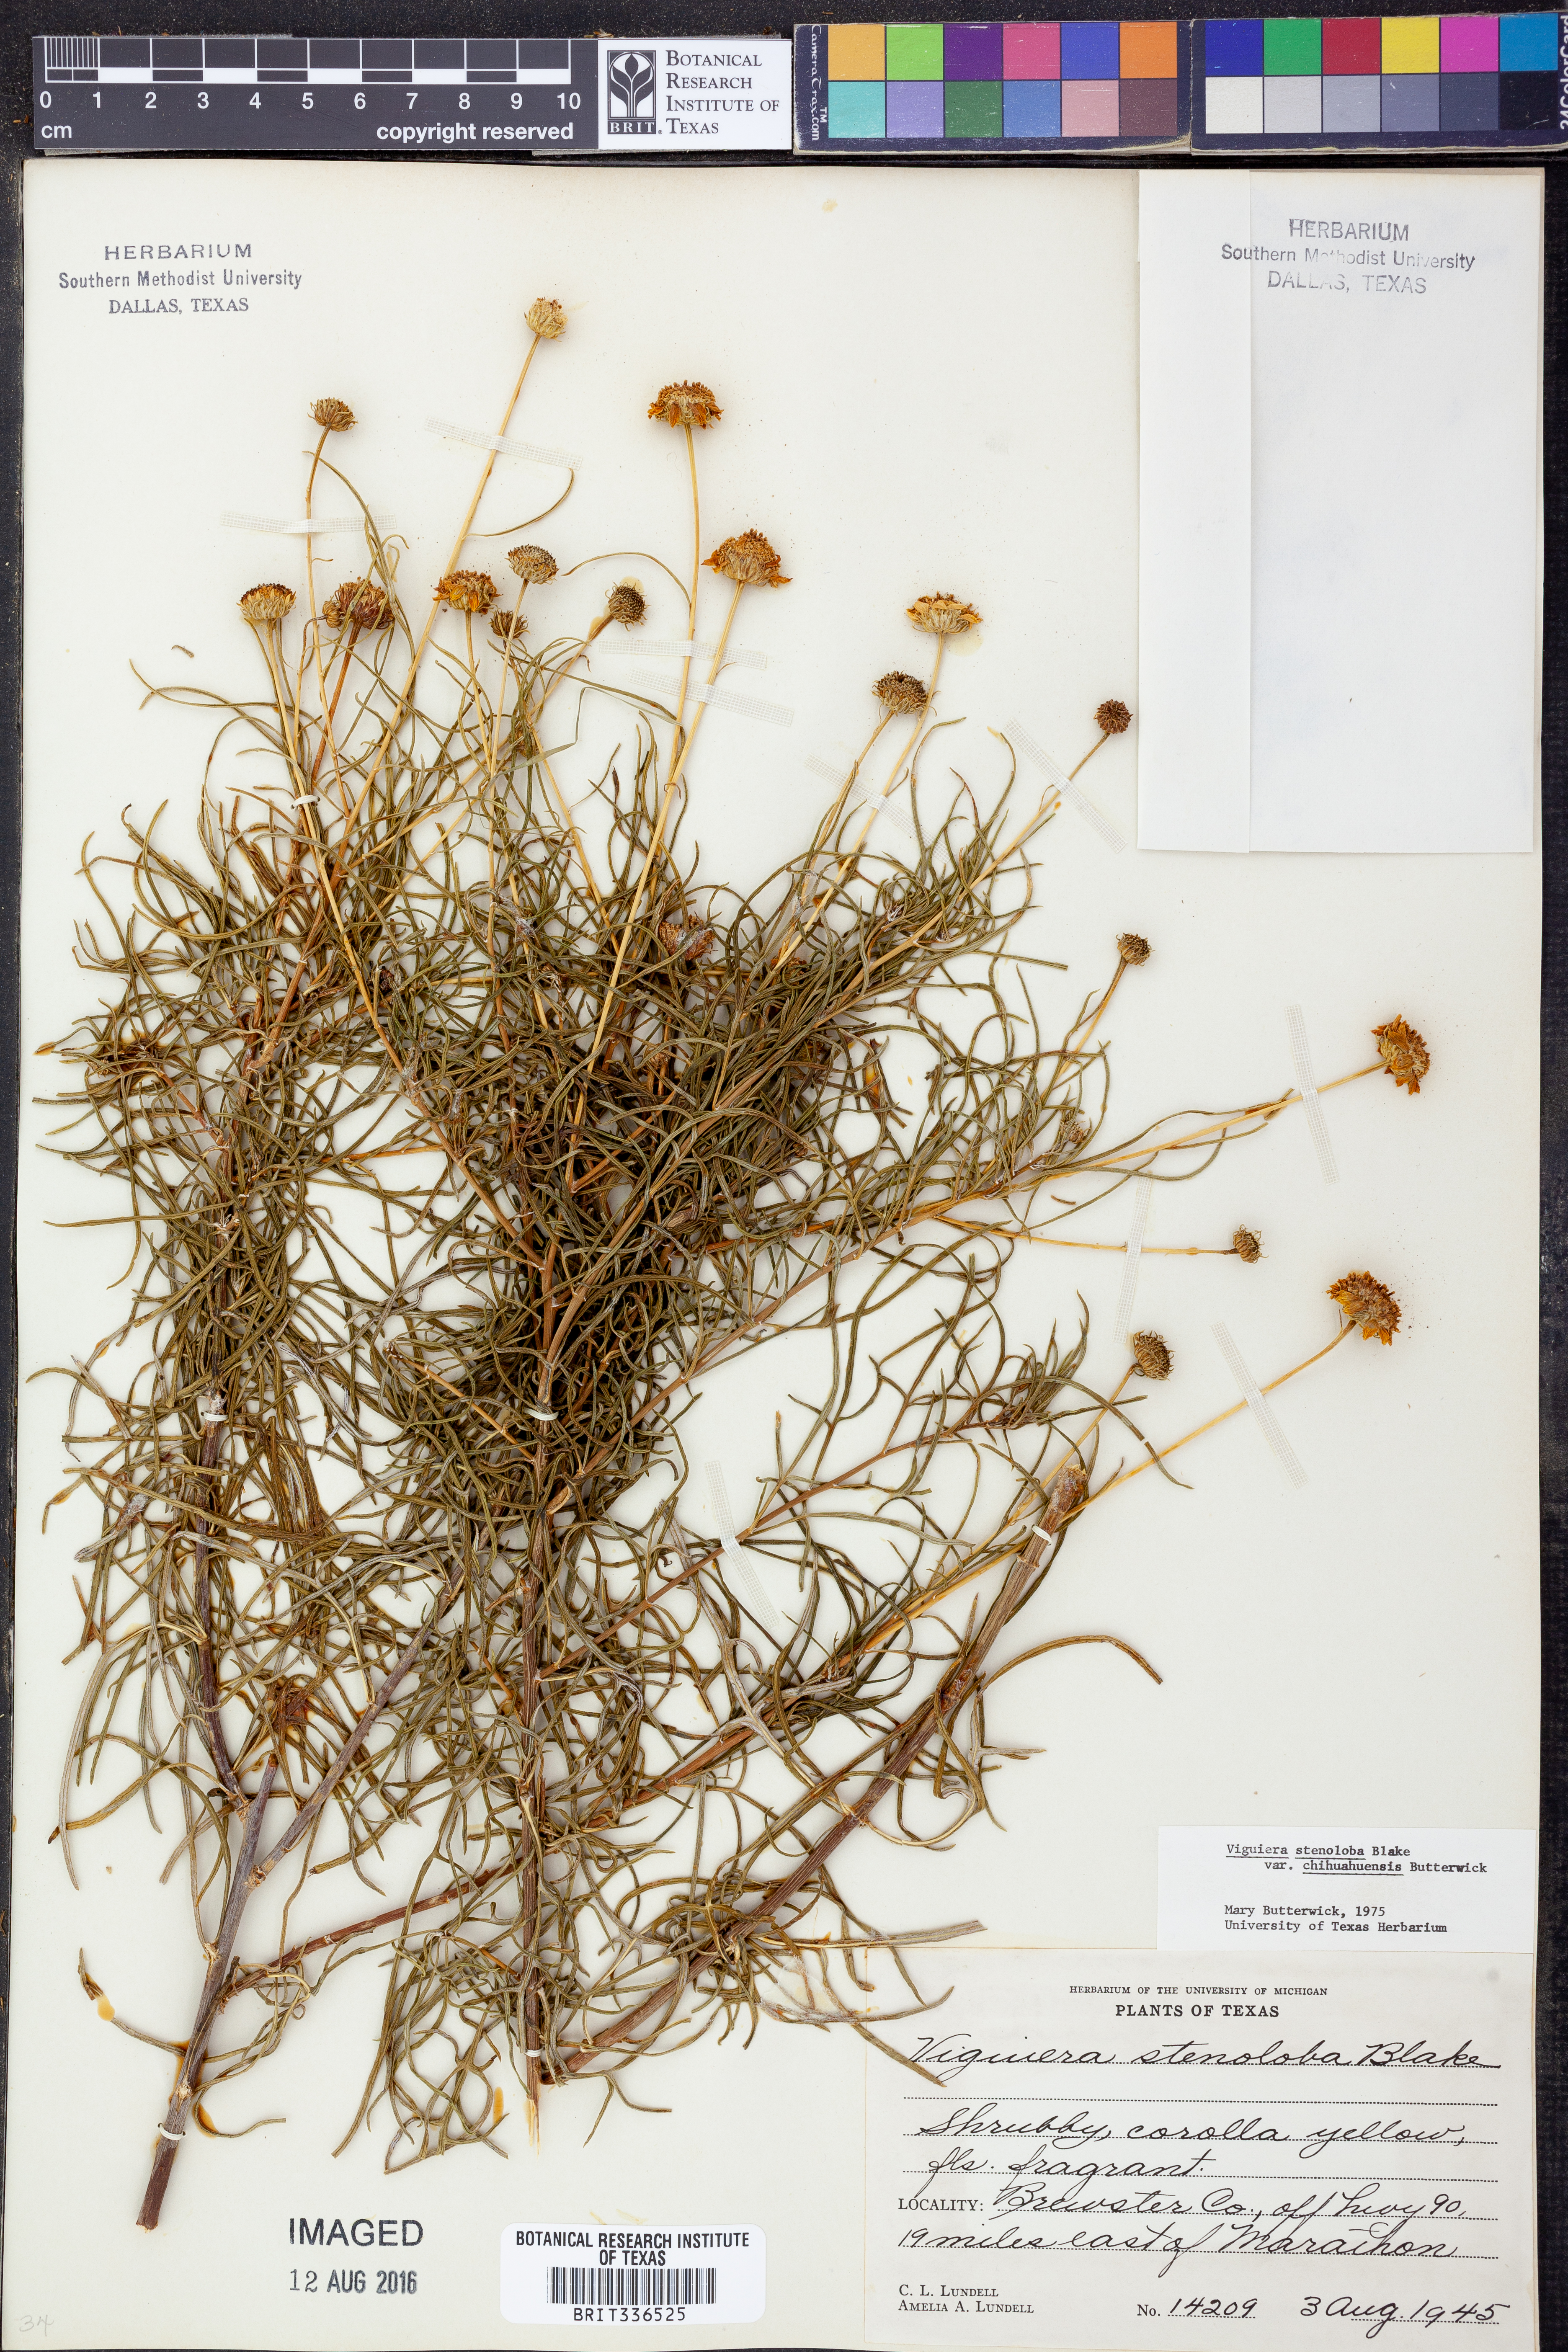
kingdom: Plantae
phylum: Tracheophyta
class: Magnoliopsida
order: Asterales
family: Asteraceae
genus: Sidneya
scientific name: Sidneya tenuifolia
